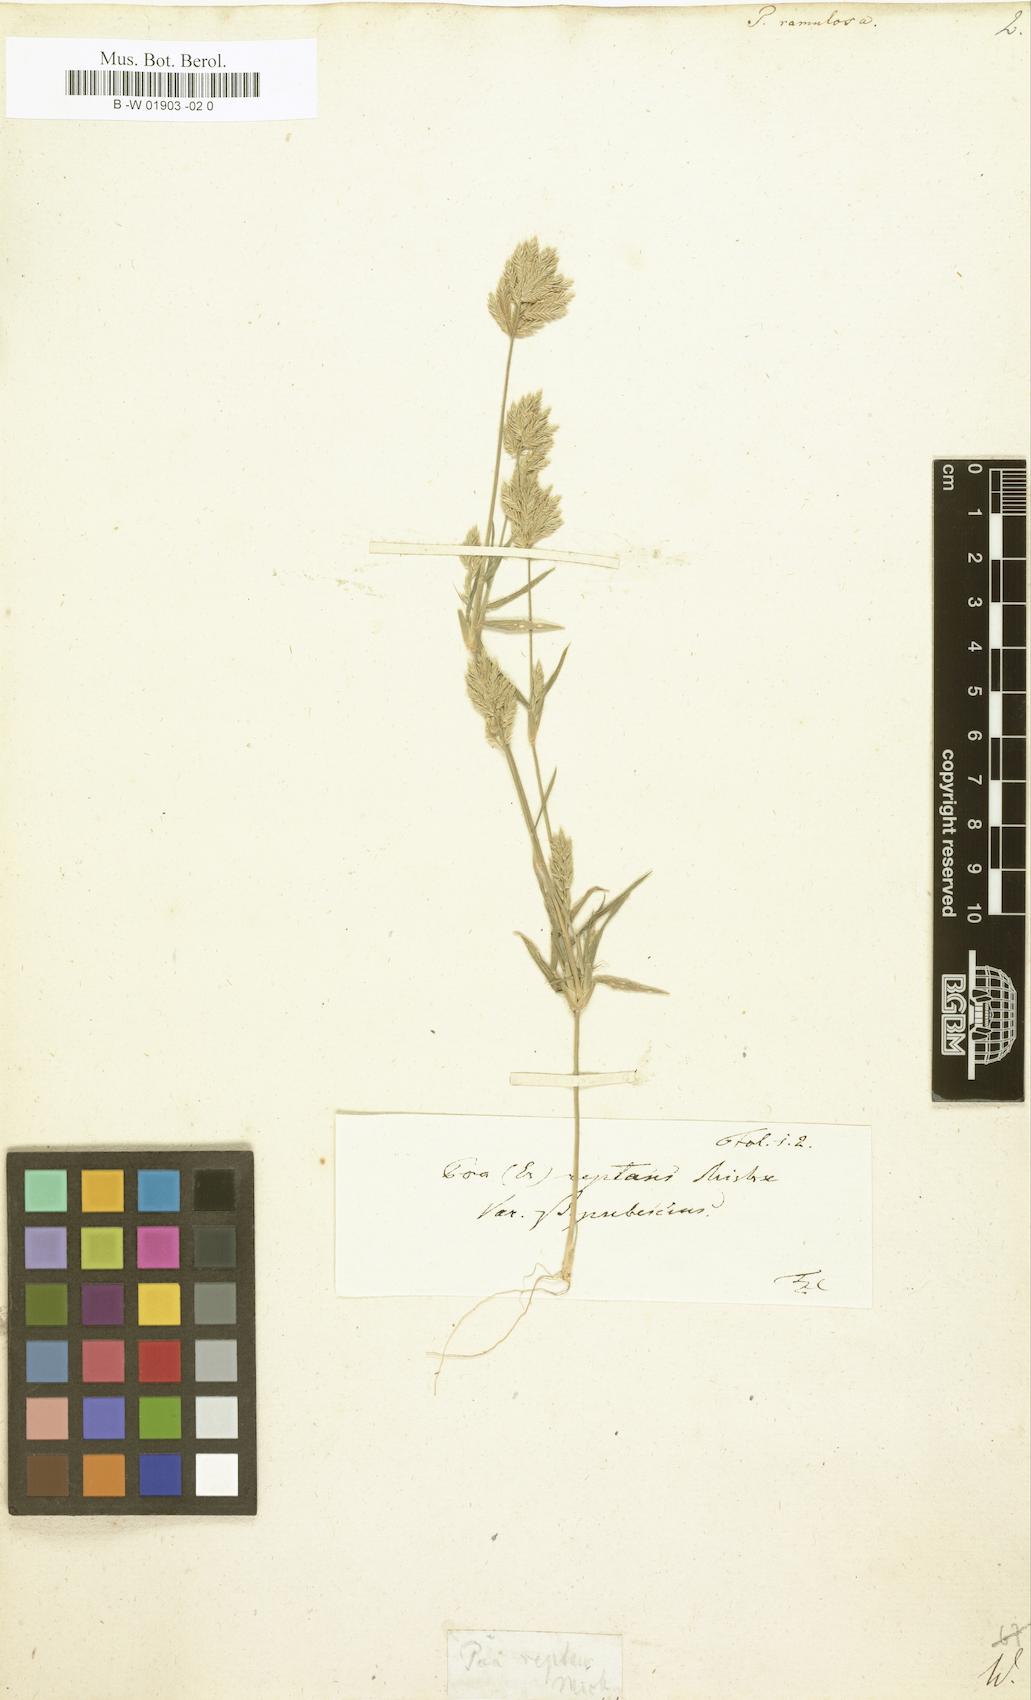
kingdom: Plantae
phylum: Tracheophyta
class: Liliopsida
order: Poales
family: Poaceae
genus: Aeluropus
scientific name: Aeluropus lagopoides
